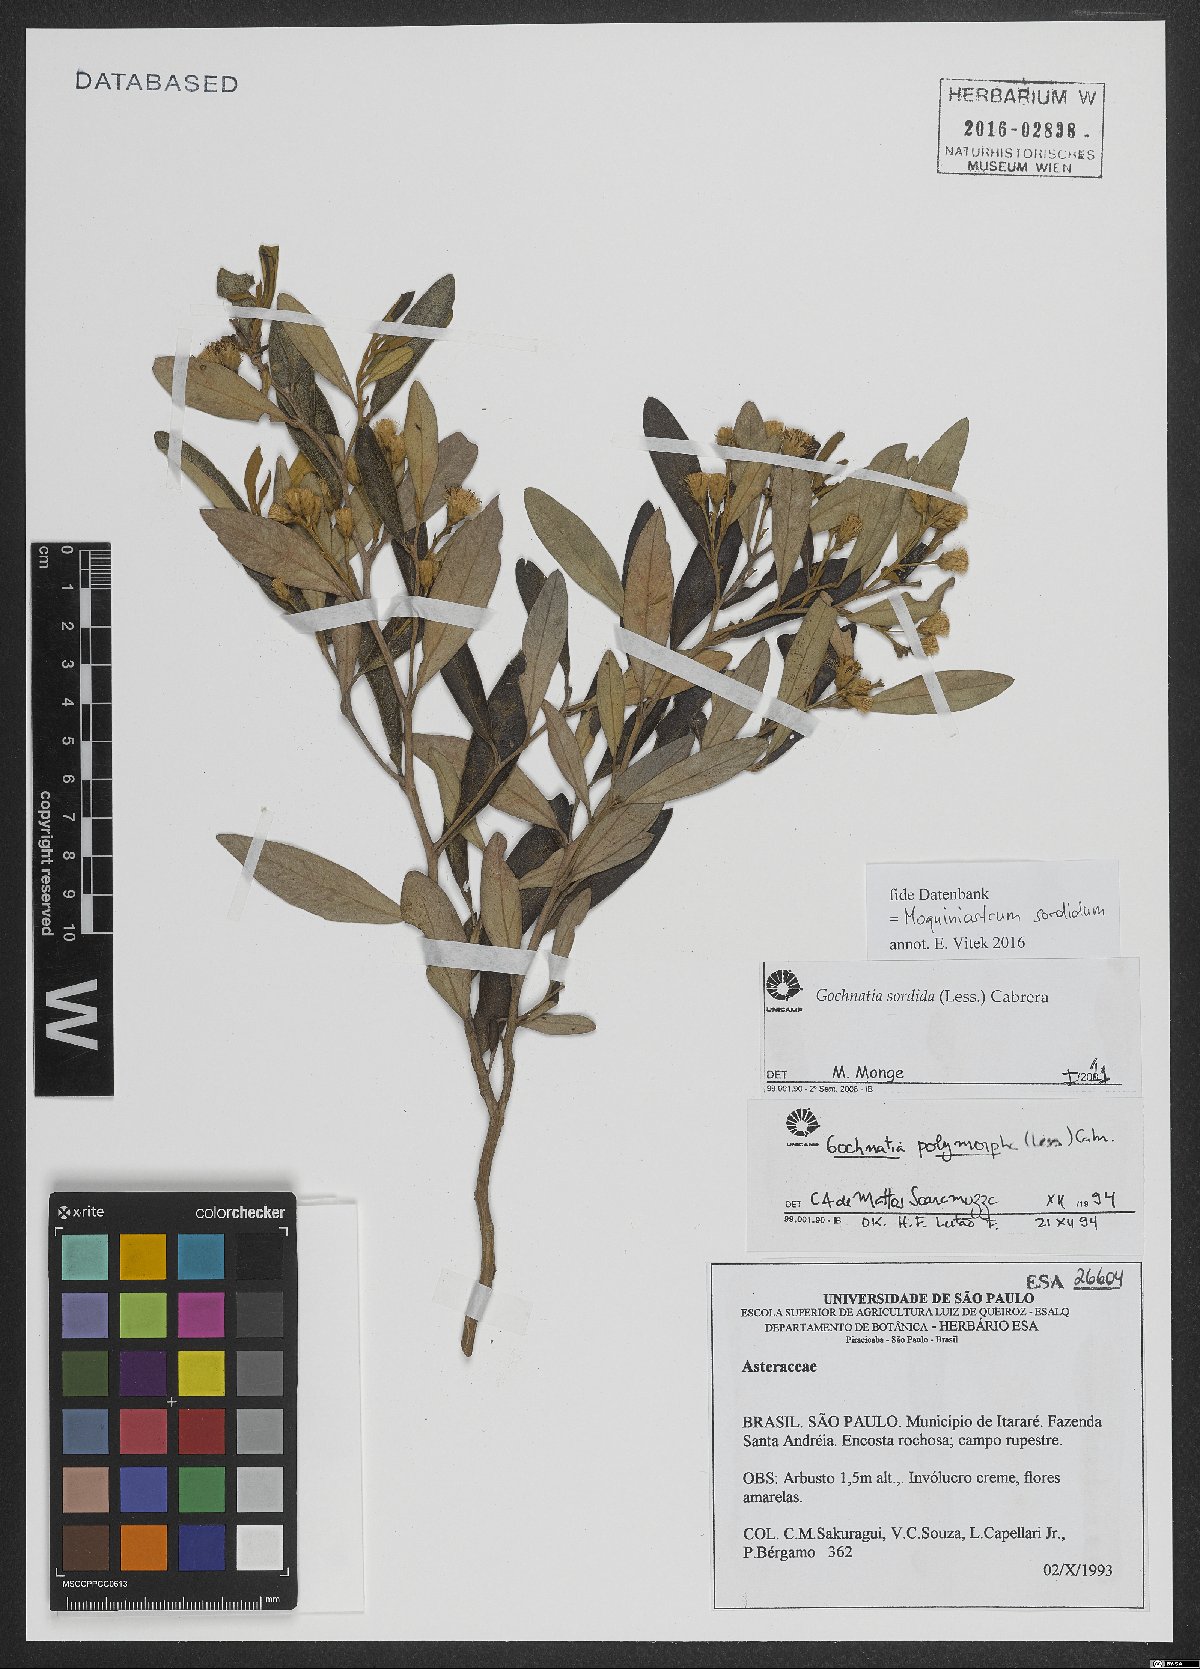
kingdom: Plantae
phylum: Tracheophyta
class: Magnoliopsida
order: Asterales
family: Asteraceae
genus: Moquiniastrum
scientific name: Moquiniastrum sordidum
